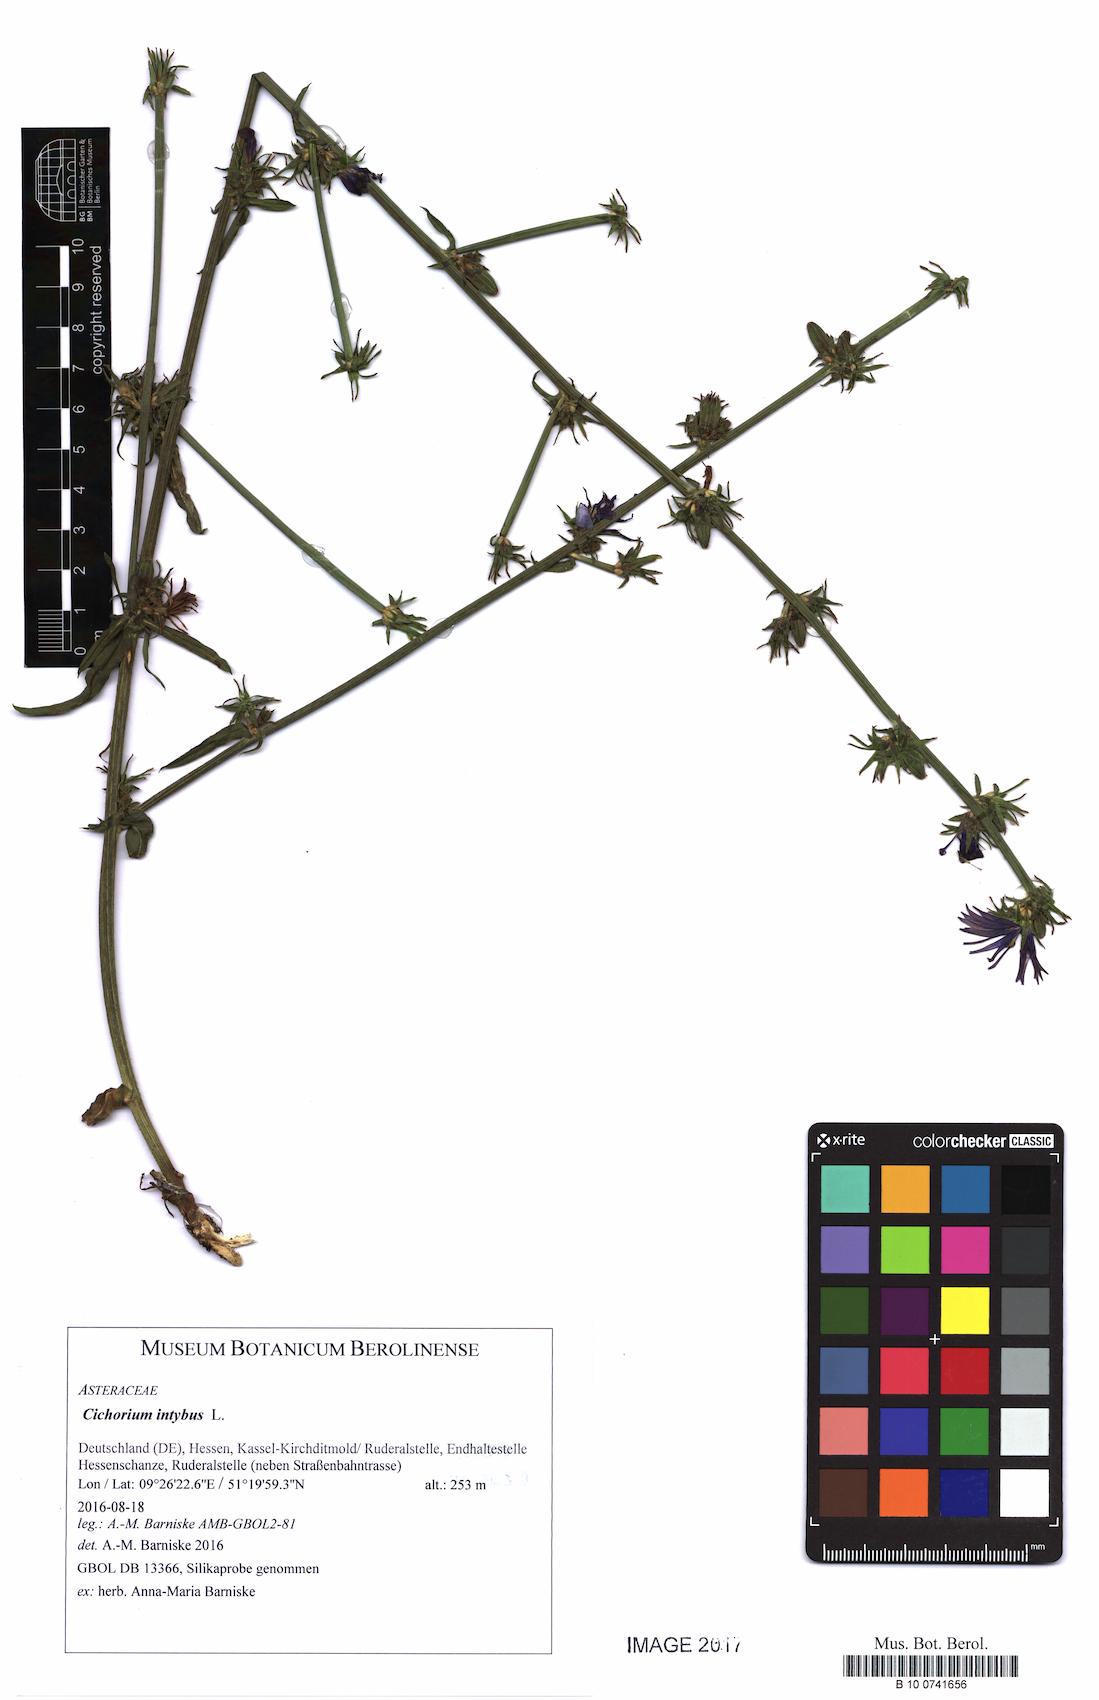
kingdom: Plantae
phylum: Tracheophyta
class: Magnoliopsida
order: Asterales
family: Asteraceae
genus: Cichorium
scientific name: Cichorium intybus
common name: Chicory
